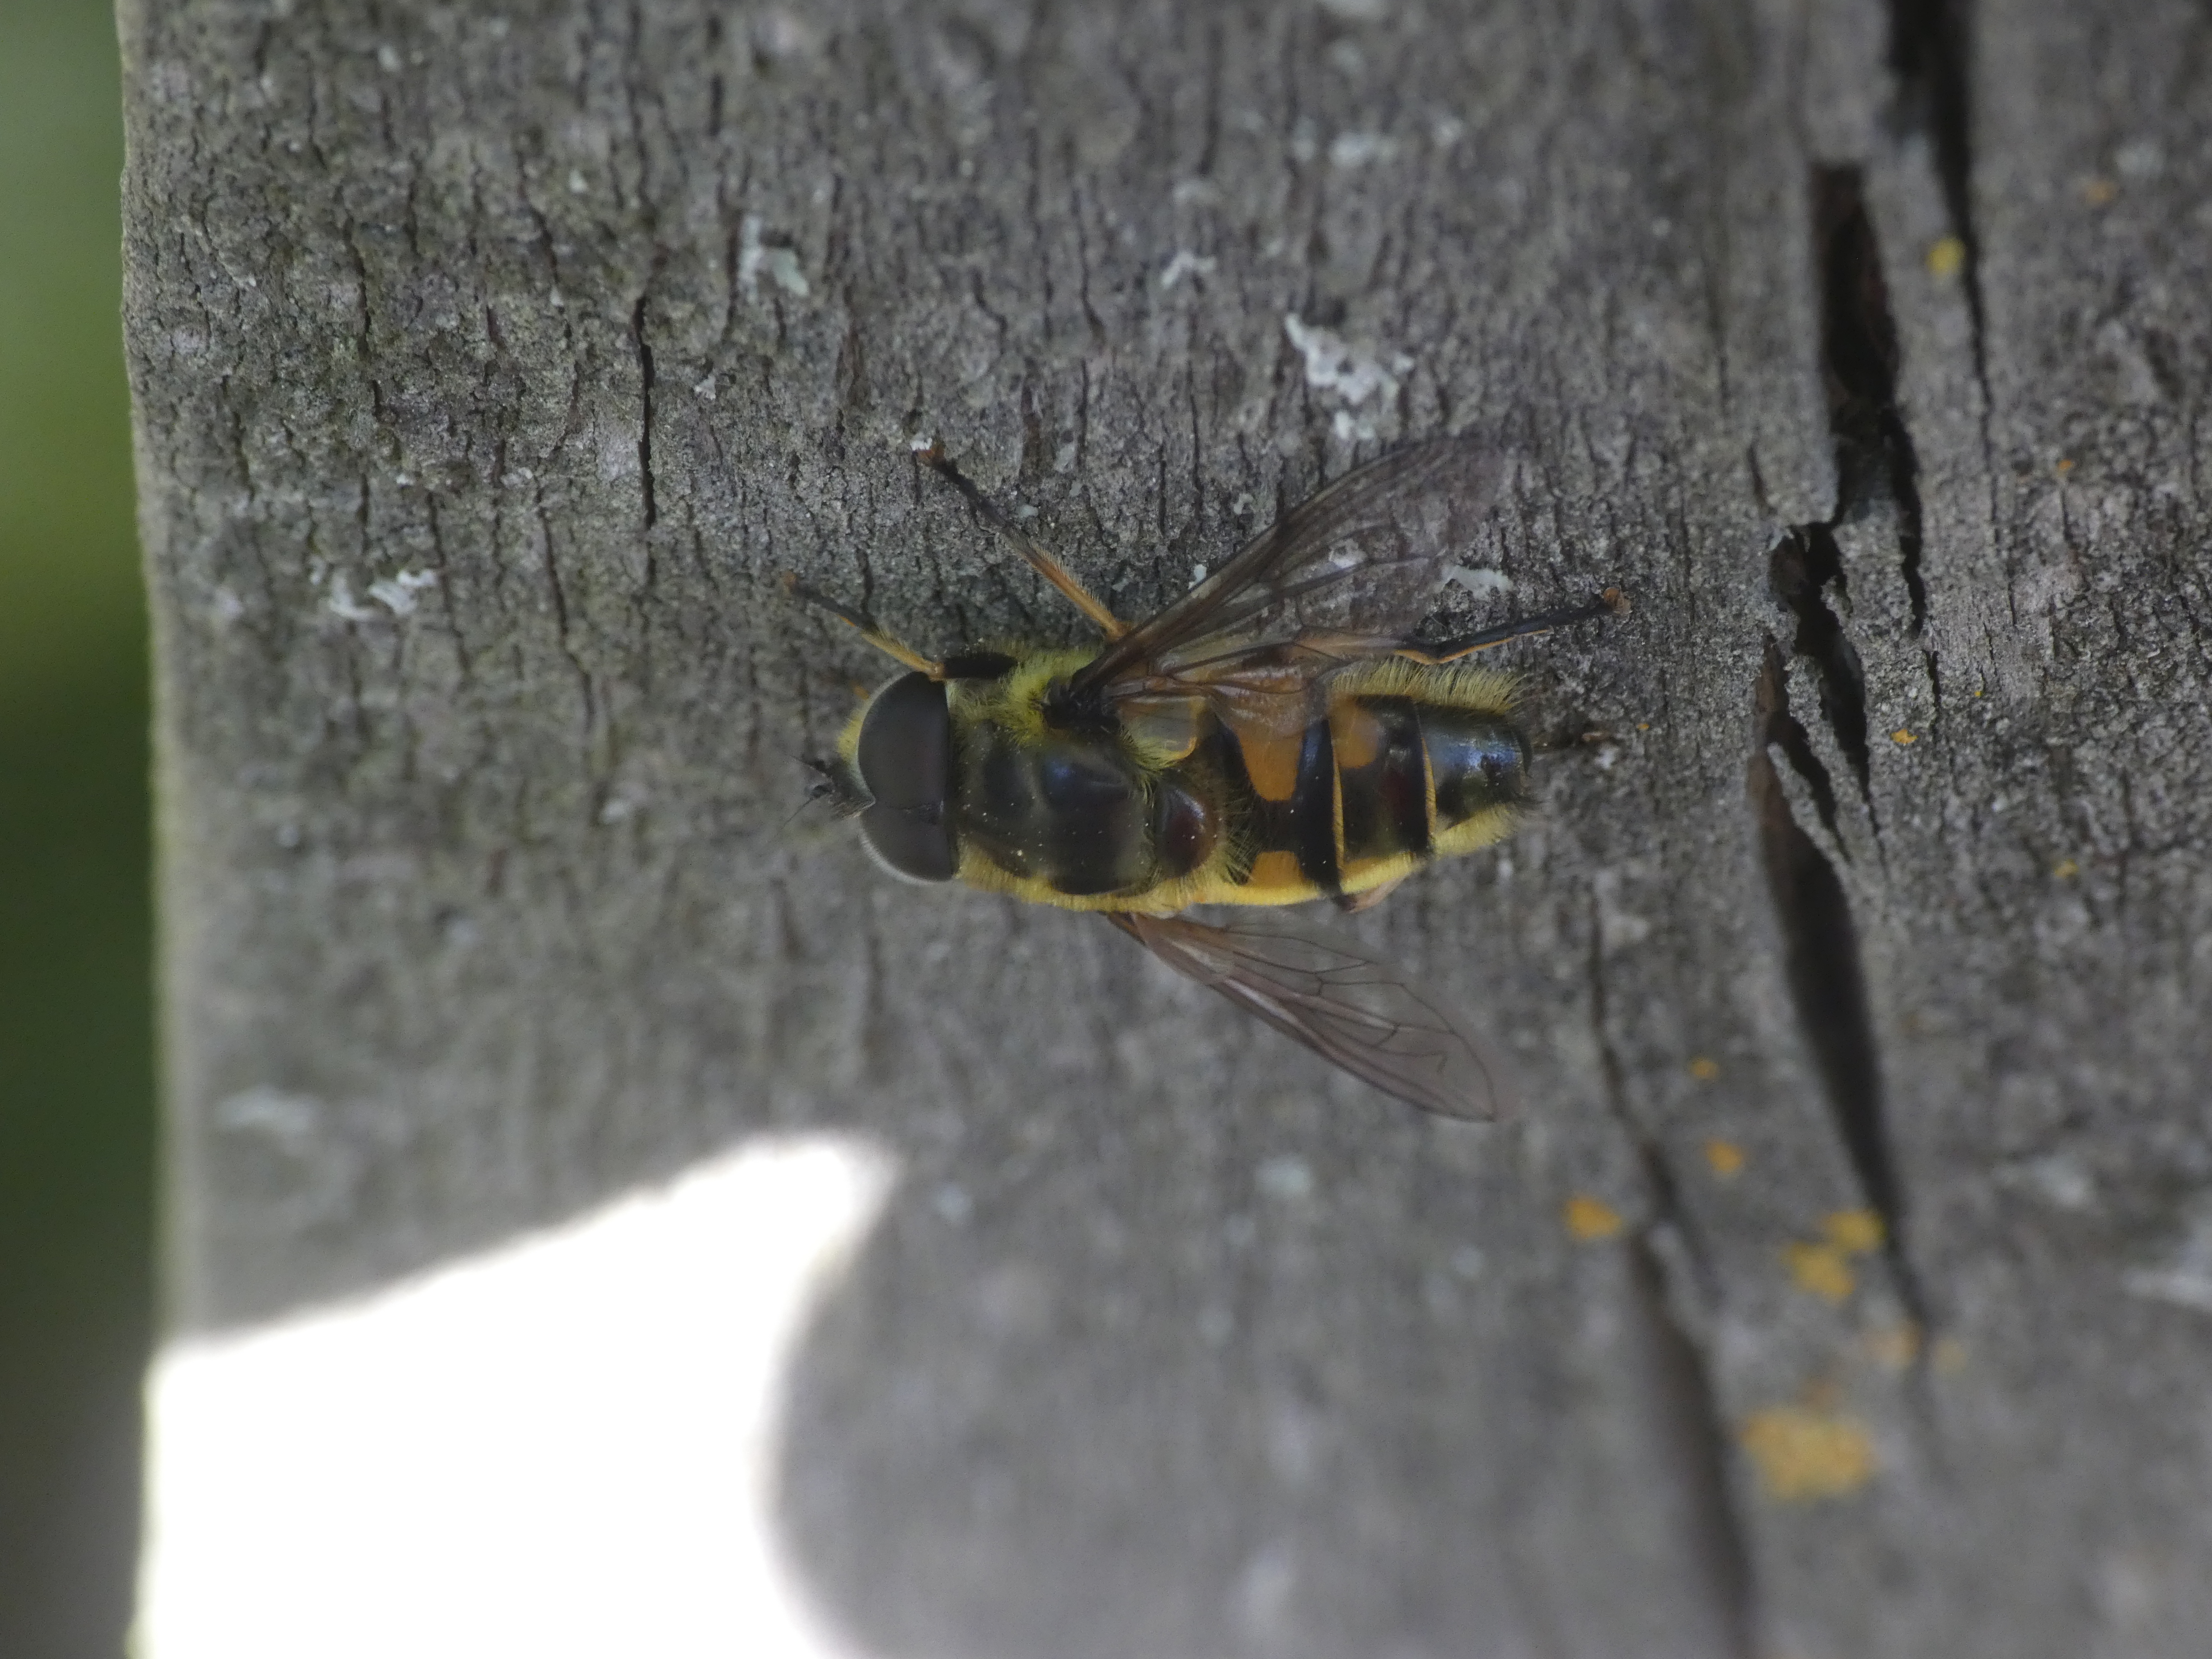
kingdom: Animalia
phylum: Arthropoda
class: Insecta
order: Diptera
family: Syrphidae
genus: Myathropa
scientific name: Myathropa florea
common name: Dødningehoved-svirreflue
